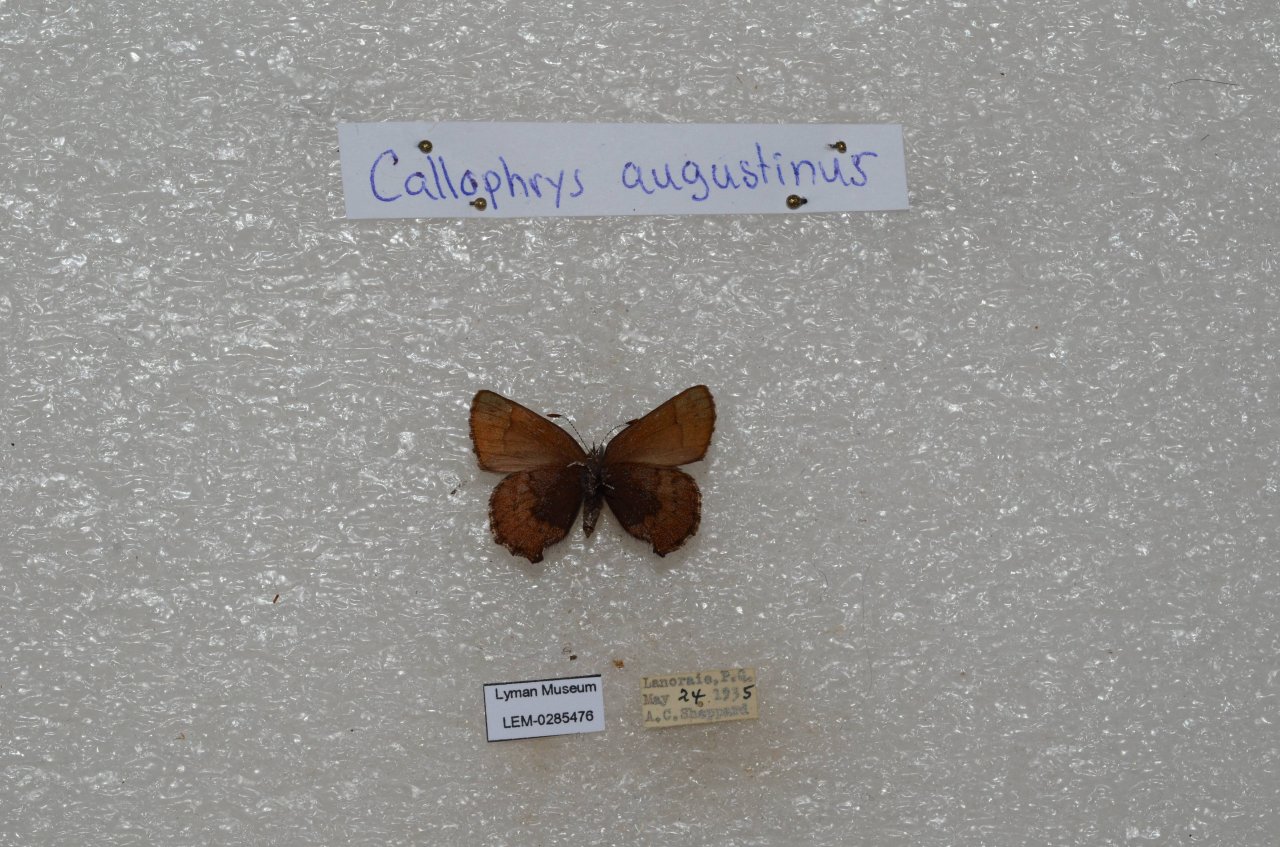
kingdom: Animalia
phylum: Arthropoda
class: Insecta
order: Lepidoptera
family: Lycaenidae
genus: Incisalia
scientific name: Incisalia irioides
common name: Brown Elfin
